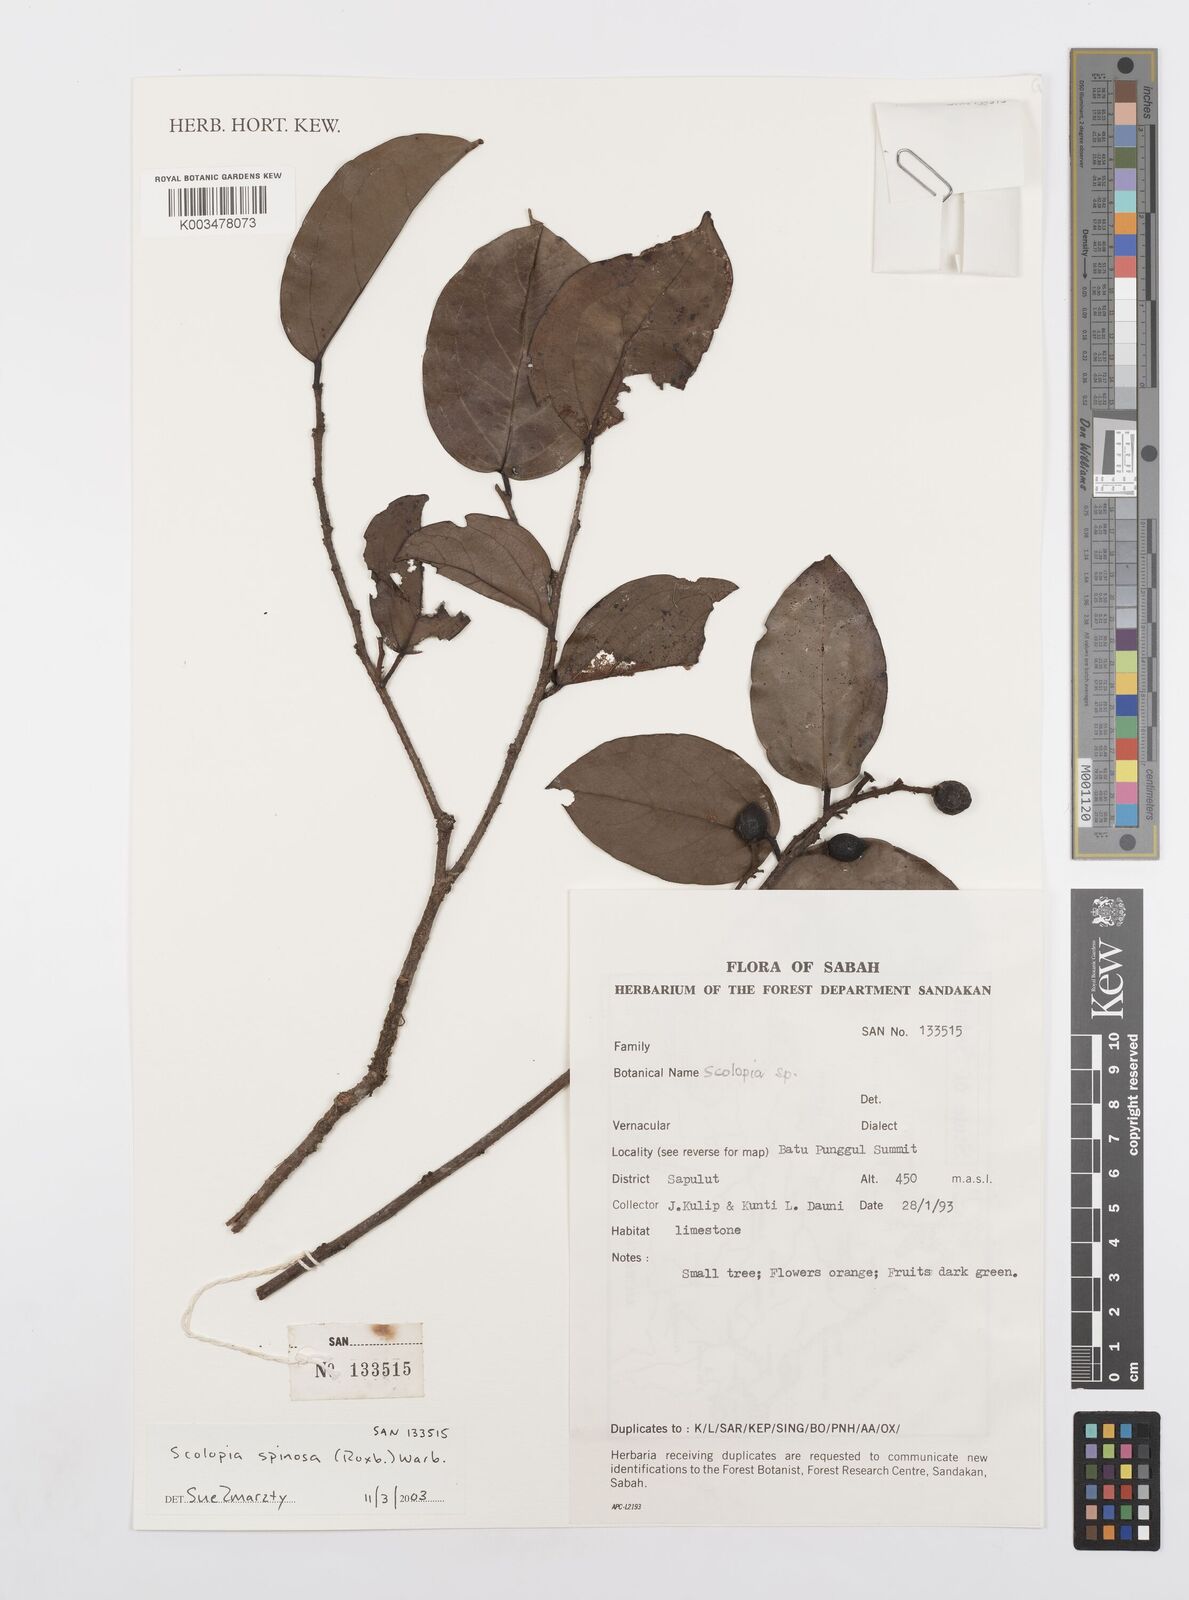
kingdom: Plantae
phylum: Tracheophyta
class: Magnoliopsida
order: Malpighiales
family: Salicaceae
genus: Scolopia
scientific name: Scolopia spinosa
